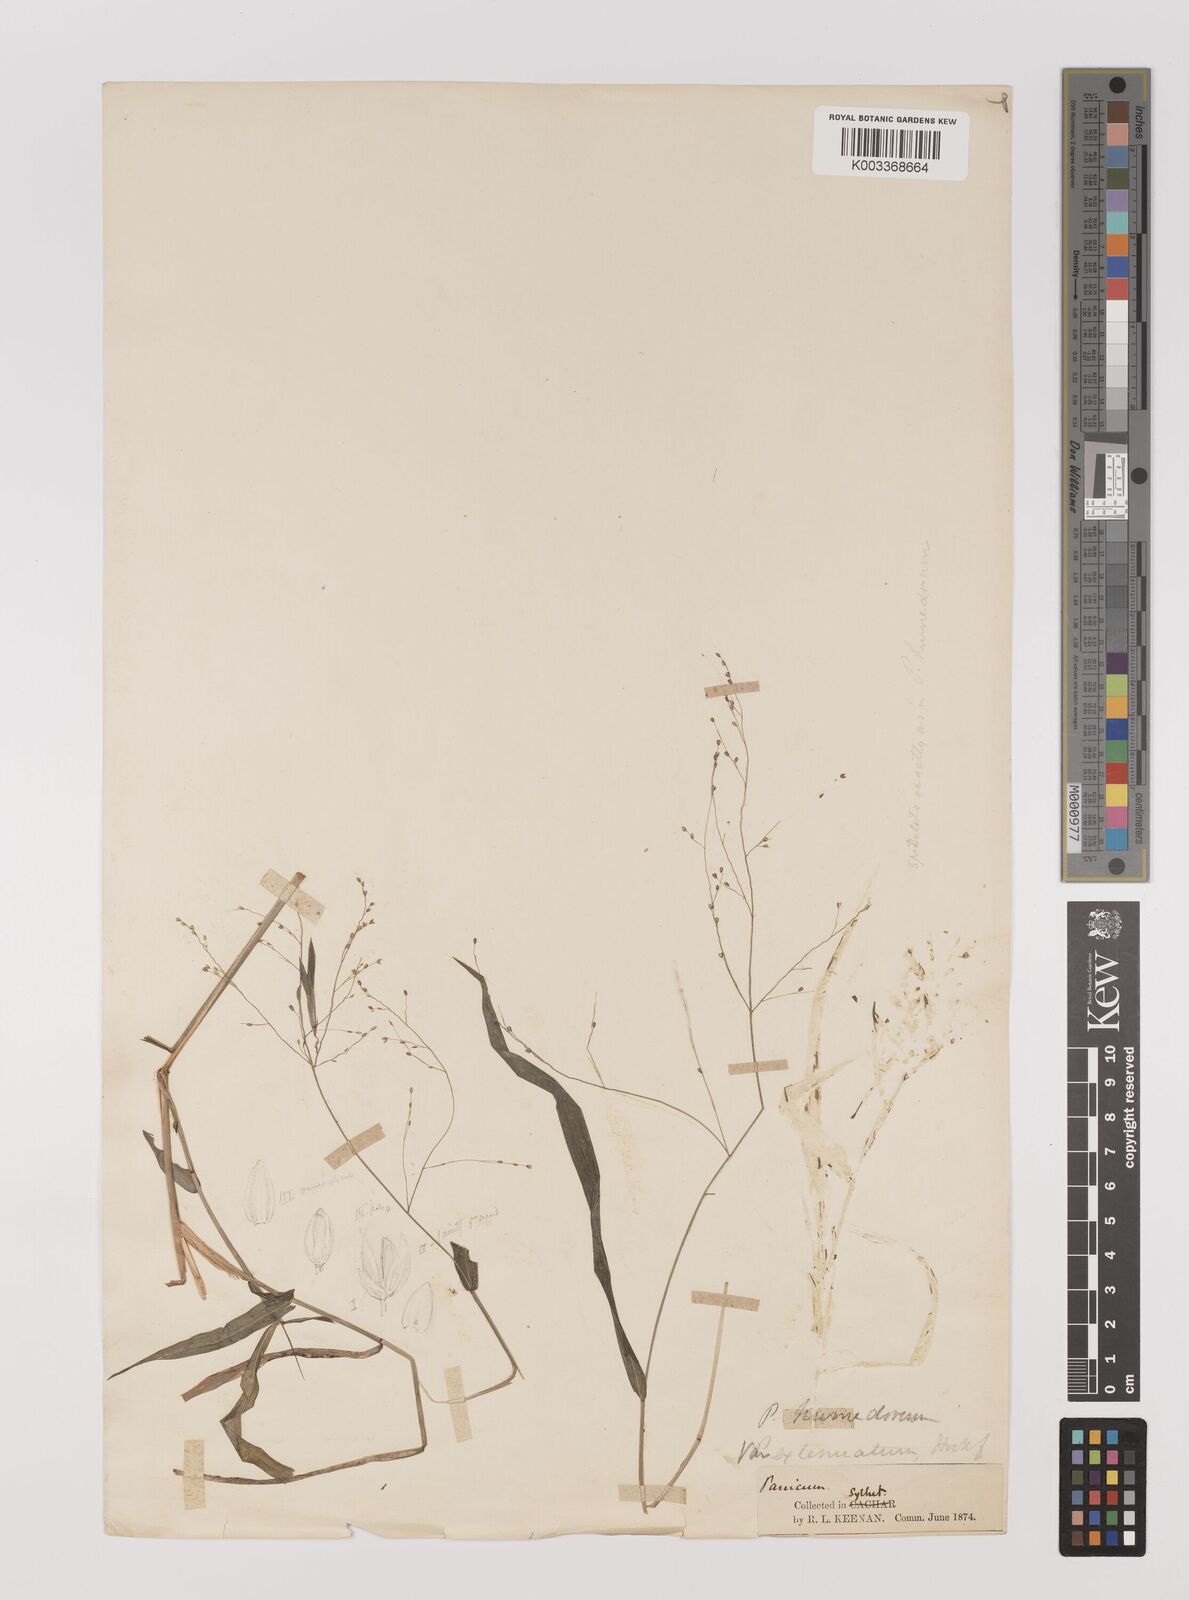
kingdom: Plantae
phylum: Tracheophyta
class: Liliopsida
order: Poales
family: Poaceae
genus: Panicum
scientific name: Panicum humidorum
